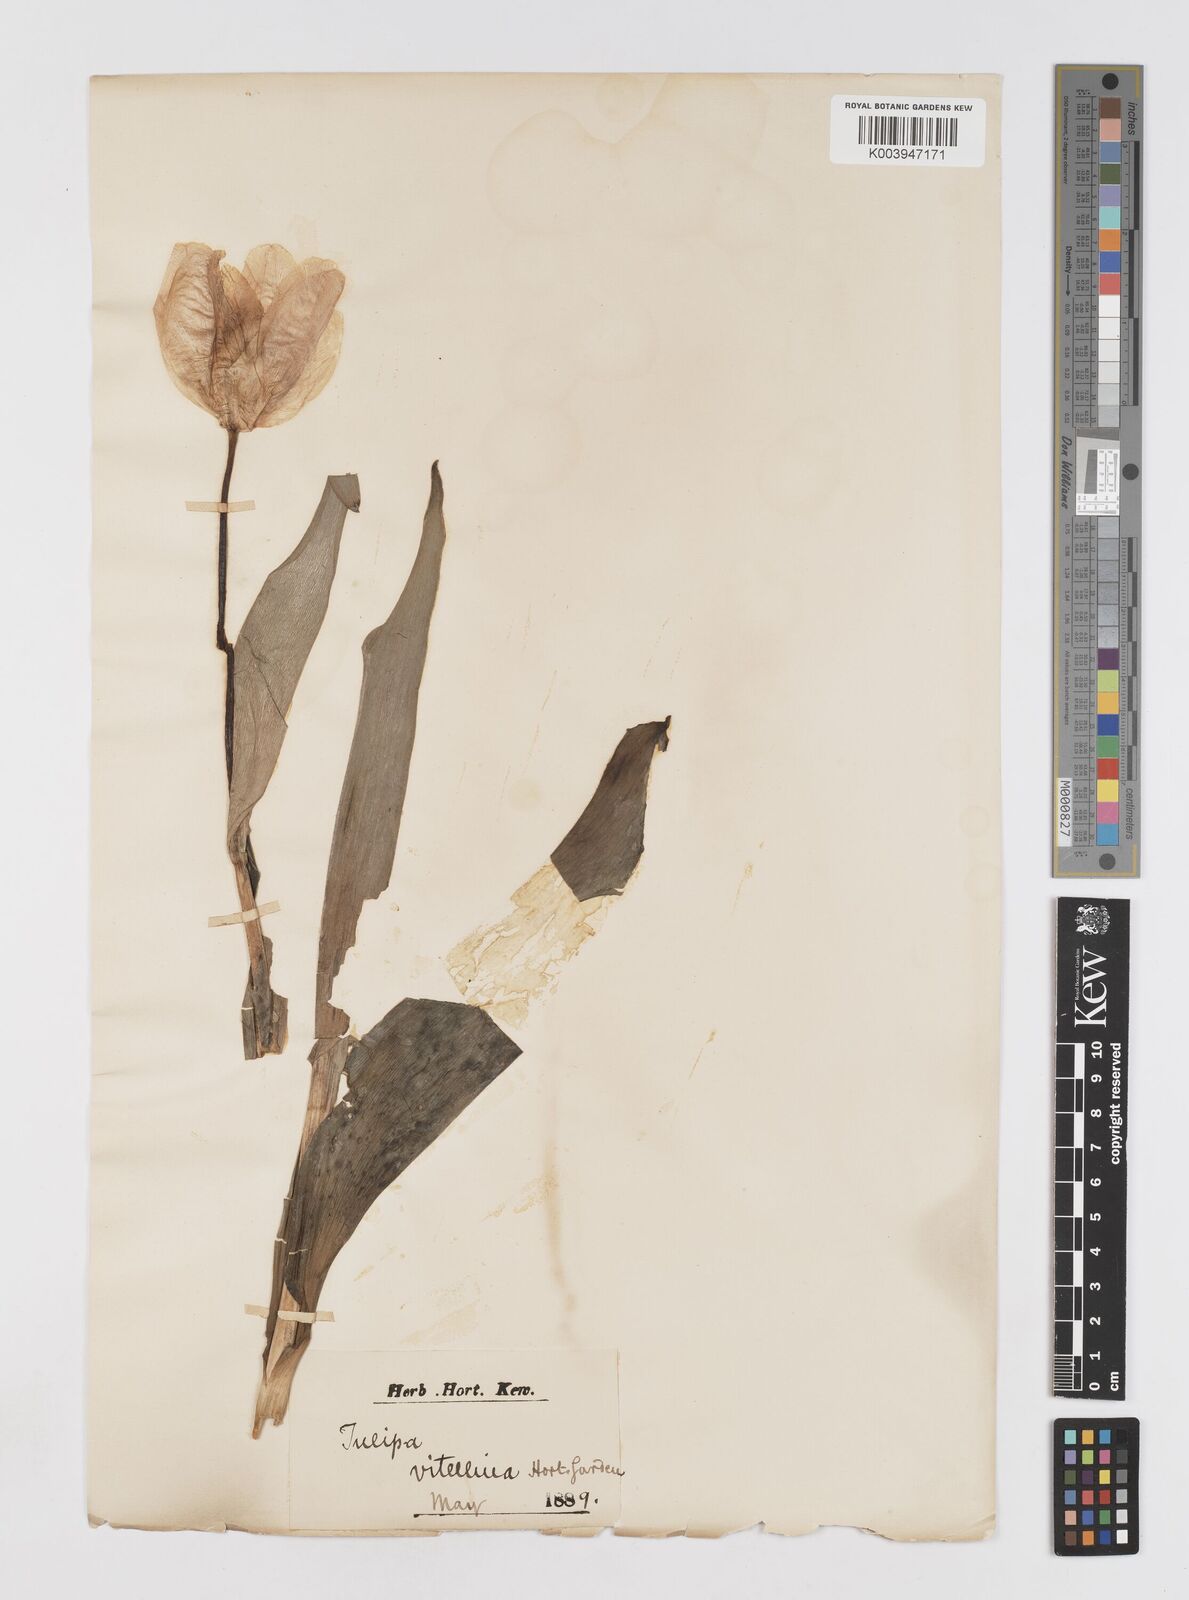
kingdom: Plantae
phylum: Tracheophyta
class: Liliopsida
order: Liliales
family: Liliaceae
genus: Tulipa
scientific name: Tulipa gesneriana
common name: Garden tulip
